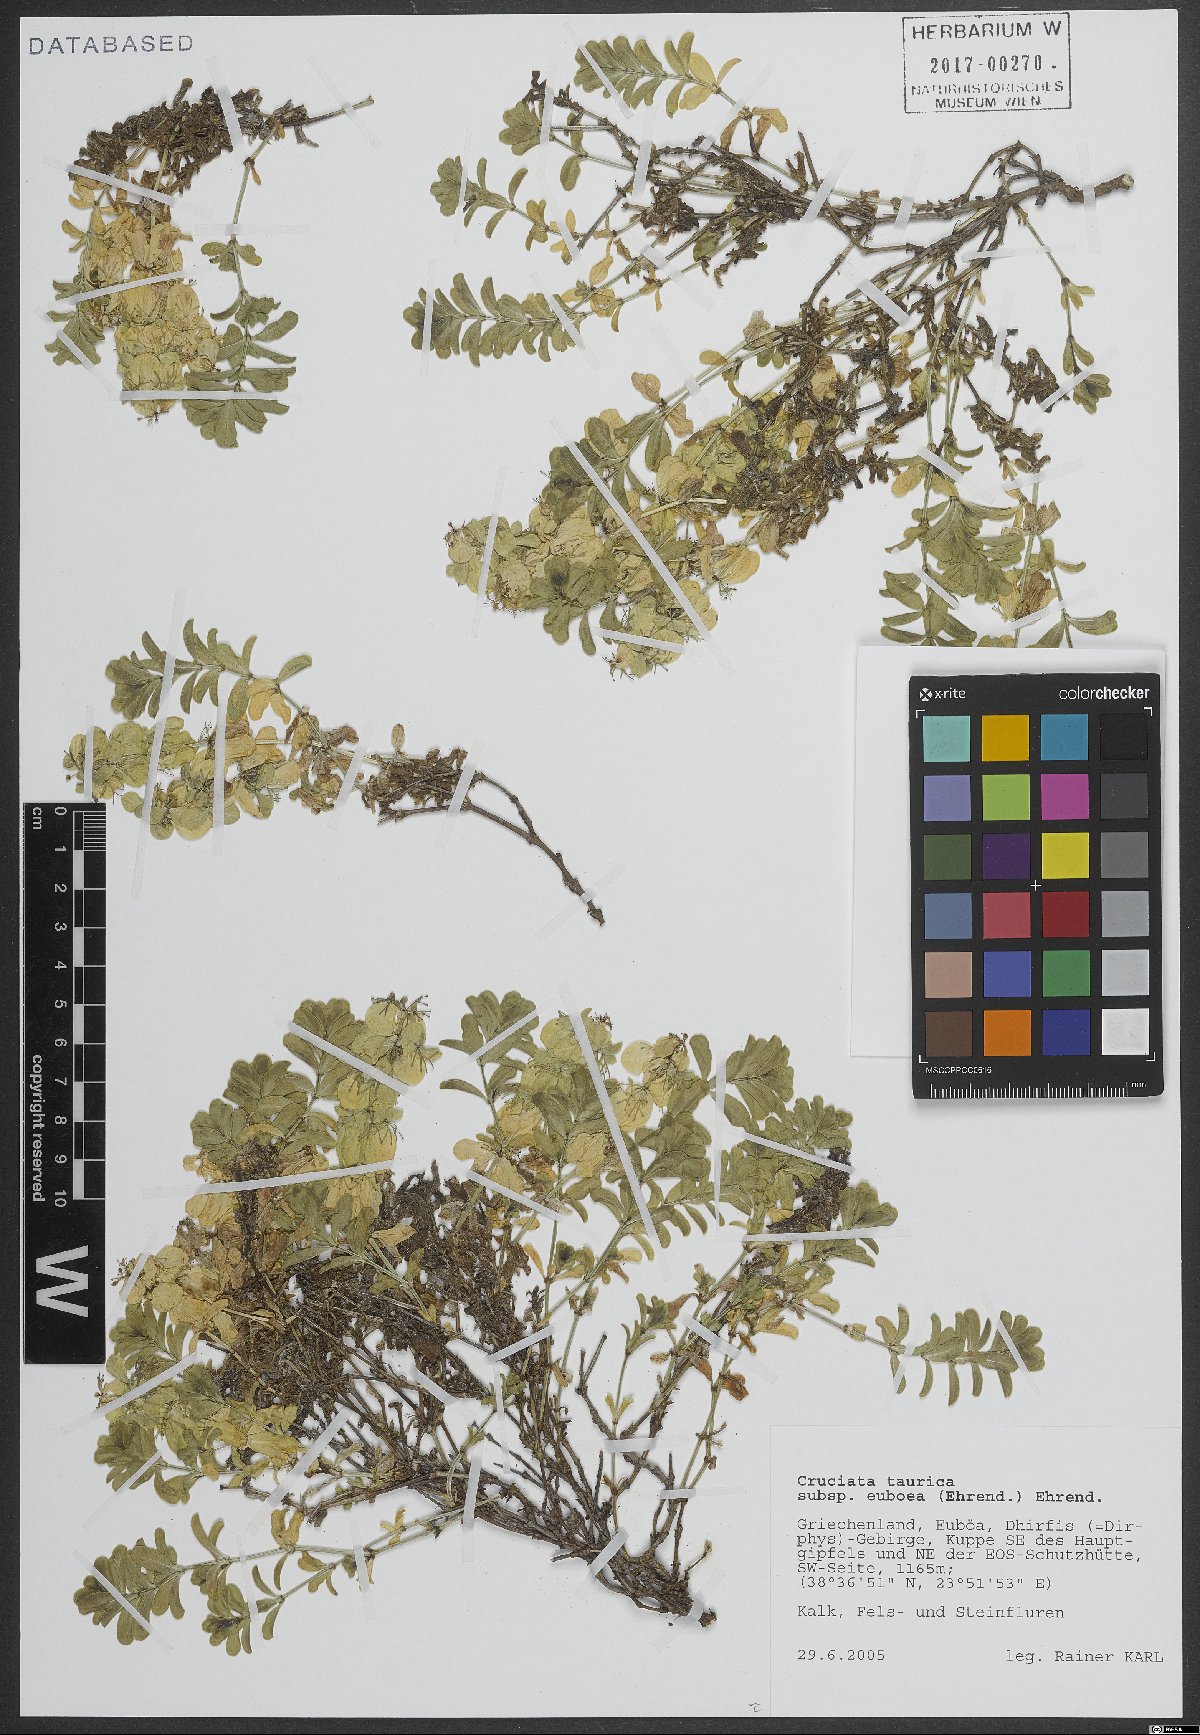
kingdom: Plantae
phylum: Tracheophyta
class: Magnoliopsida
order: Gentianales
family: Rubiaceae
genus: Cruciata
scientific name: Cruciata taurica
